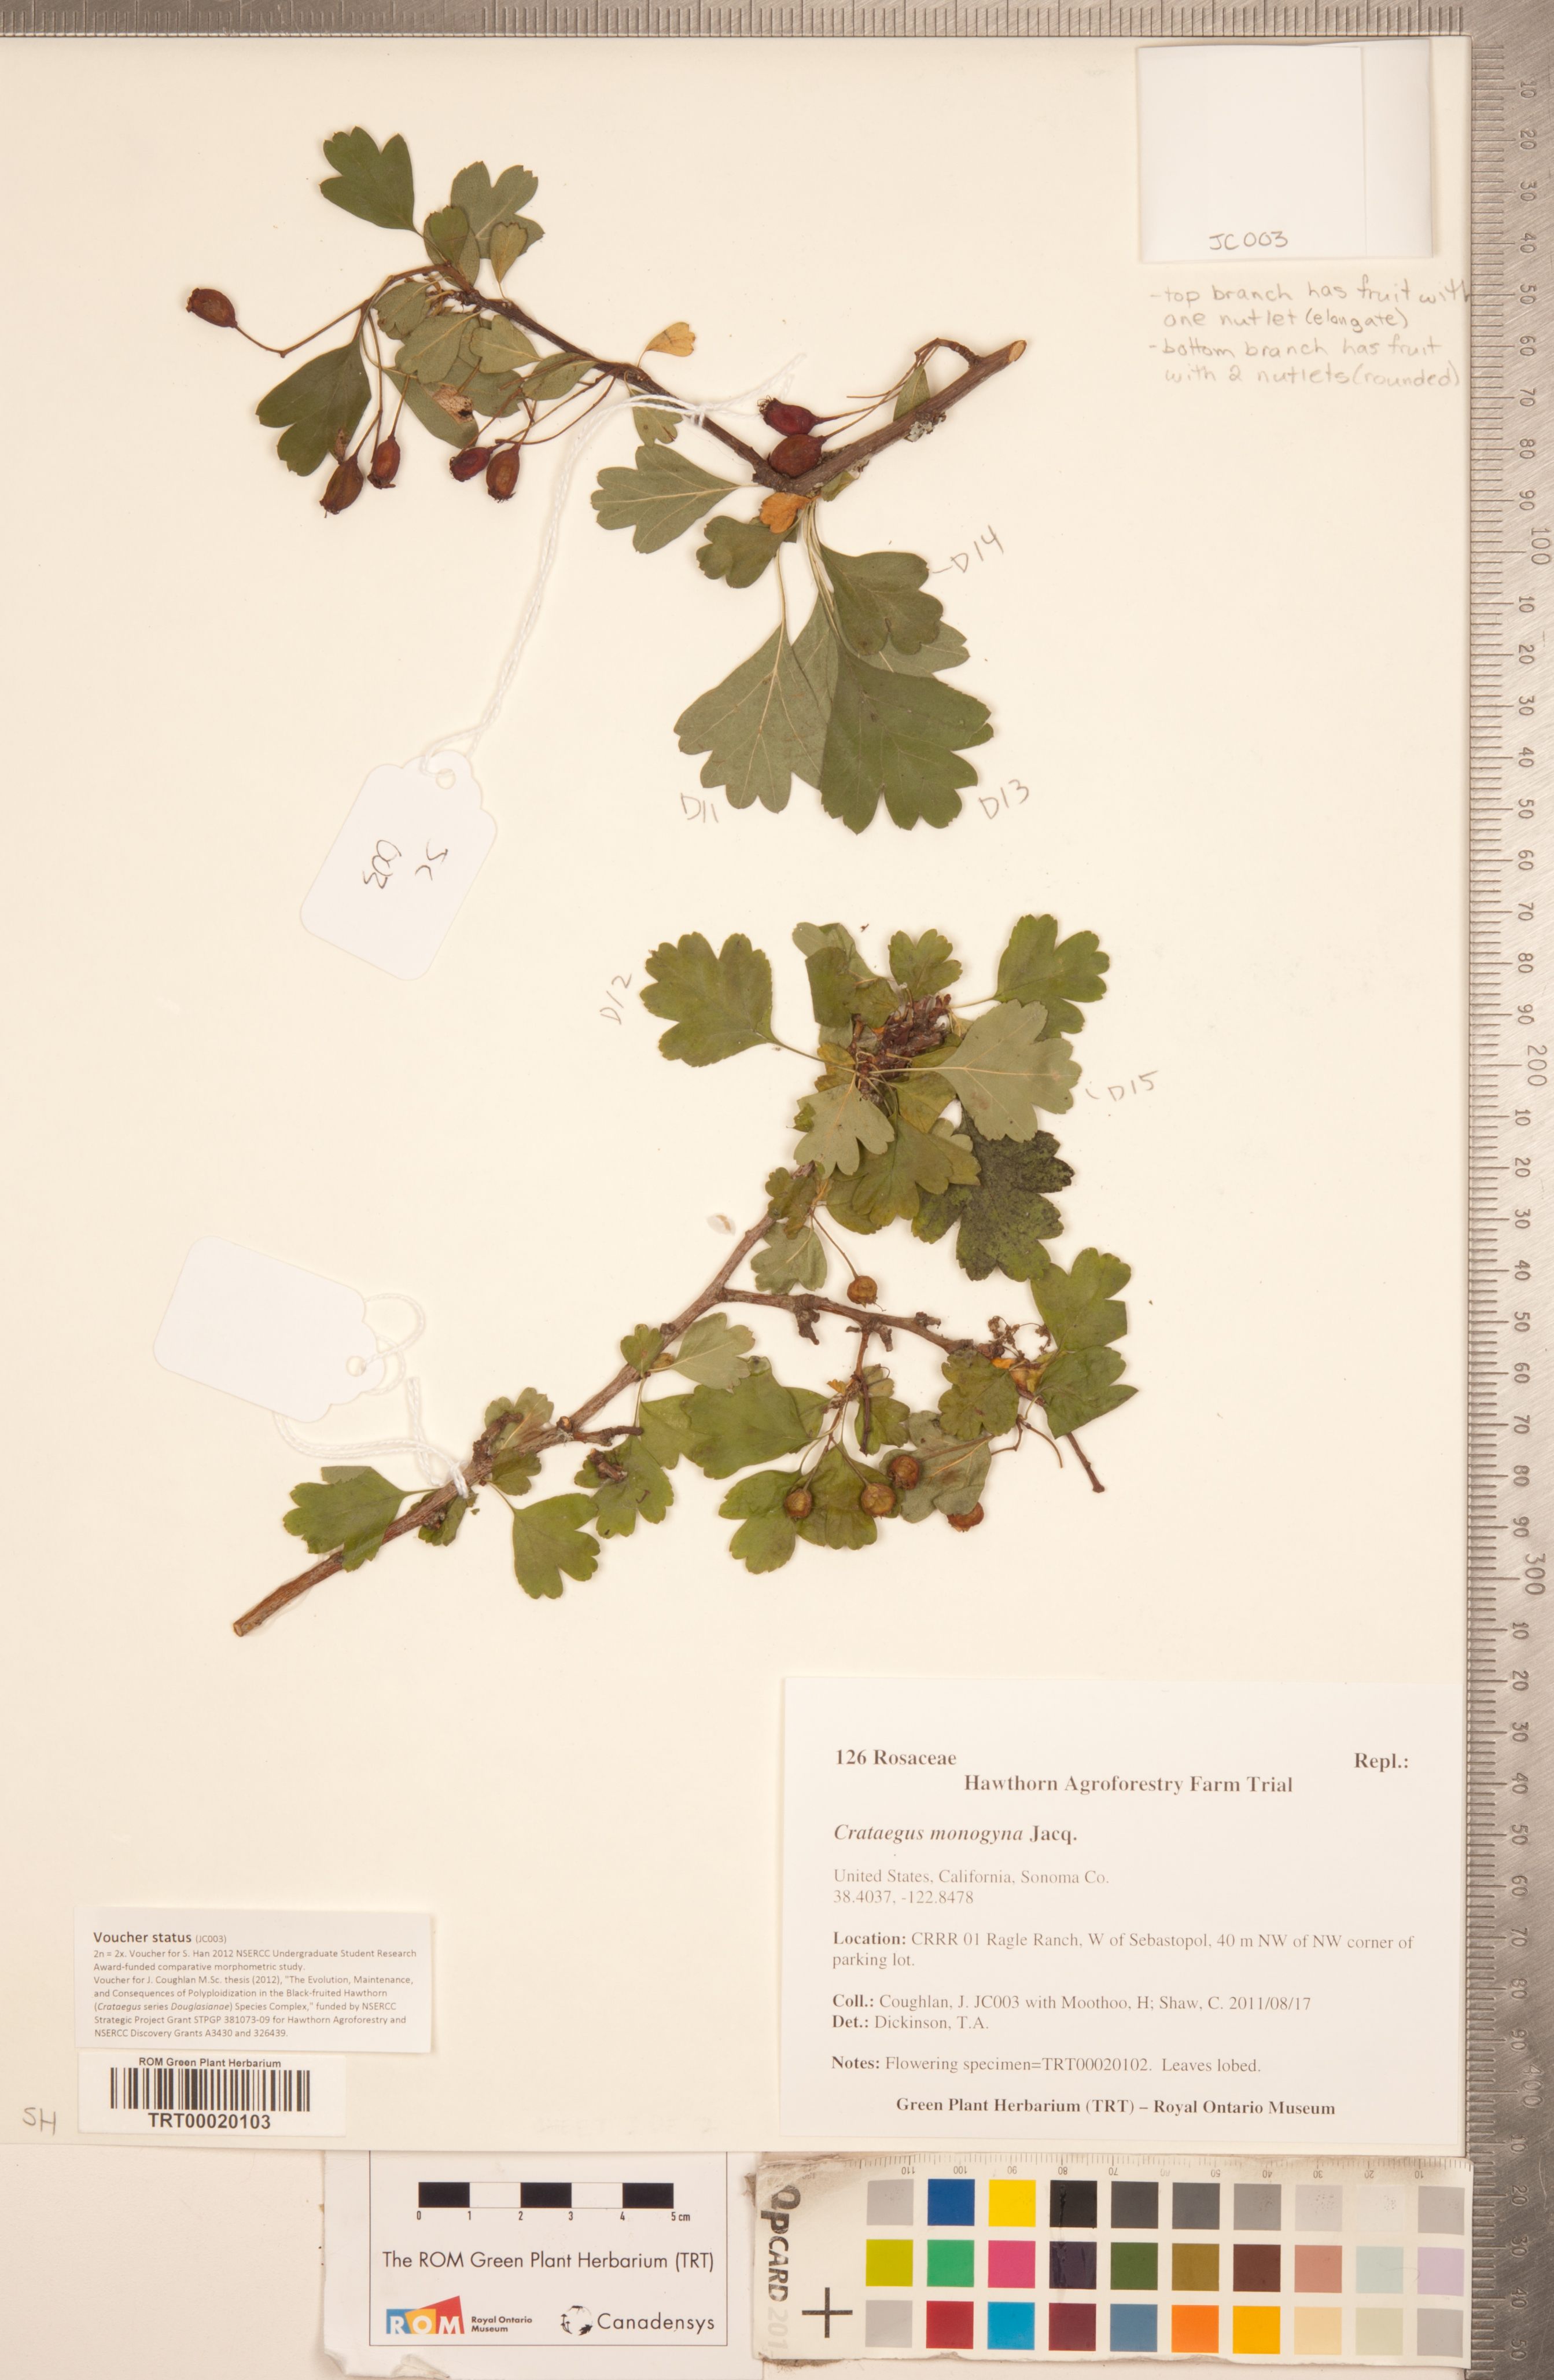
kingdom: Plantae
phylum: Tracheophyta
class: Magnoliopsida
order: Rosales
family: Rosaceae
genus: Crataegus
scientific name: Crataegus monogyna
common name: Hawthorn
